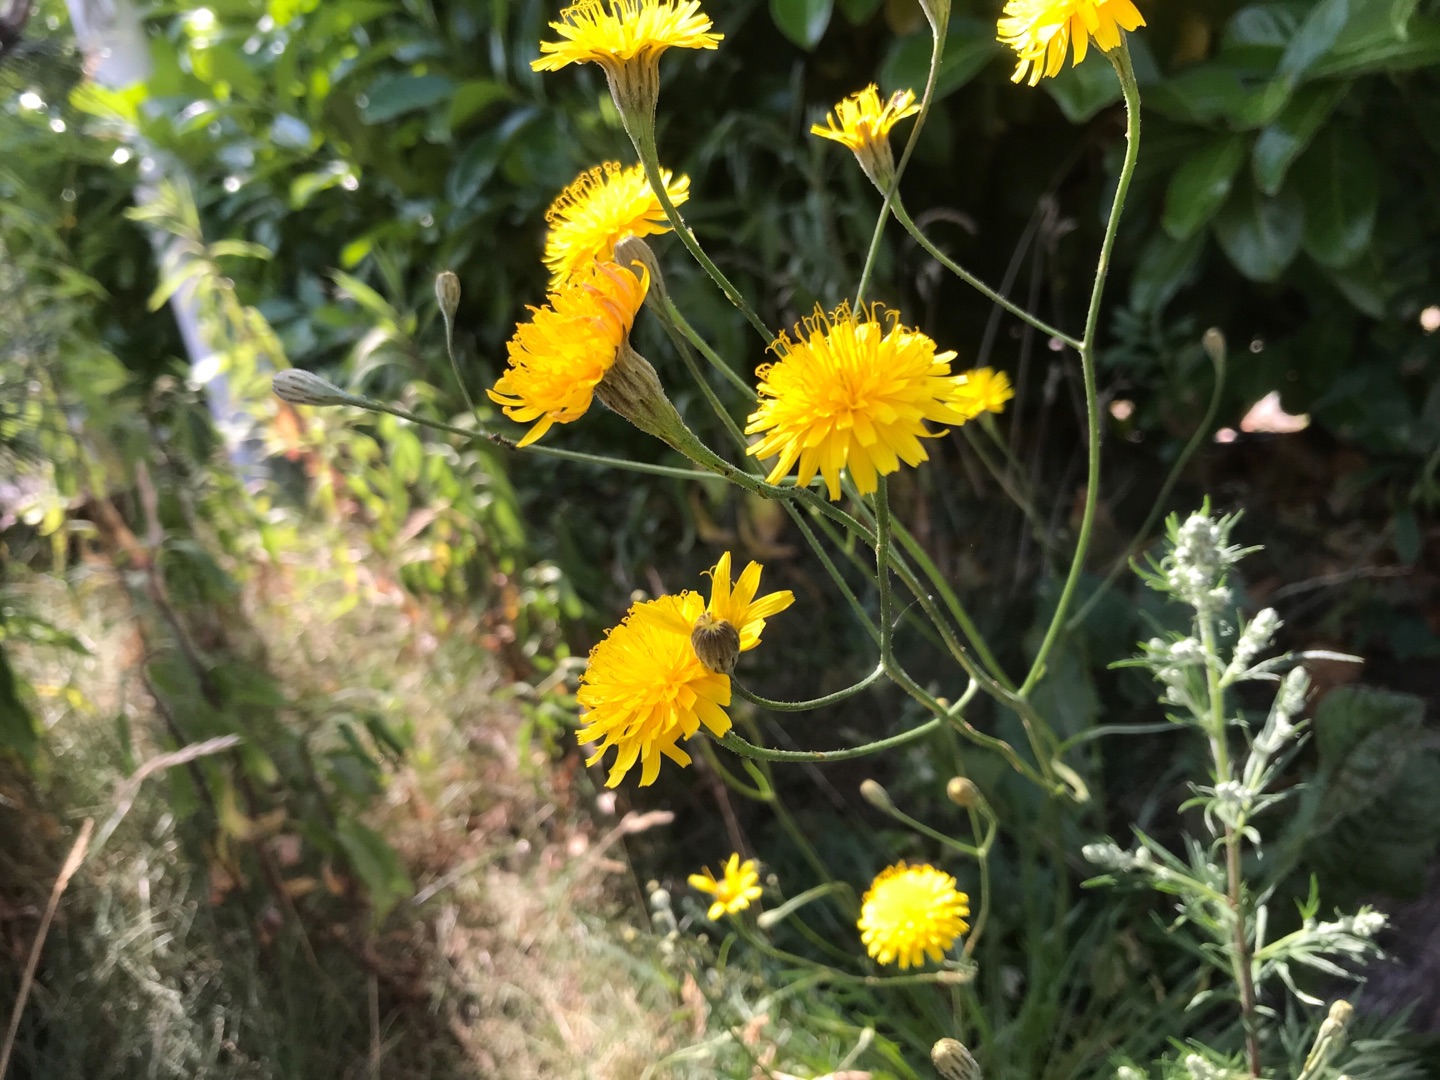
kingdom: Plantae
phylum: Tracheophyta
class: Magnoliopsida
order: Asterales
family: Asteraceae
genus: Scorzoneroides
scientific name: Scorzoneroides autumnalis
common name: Høst-borst
